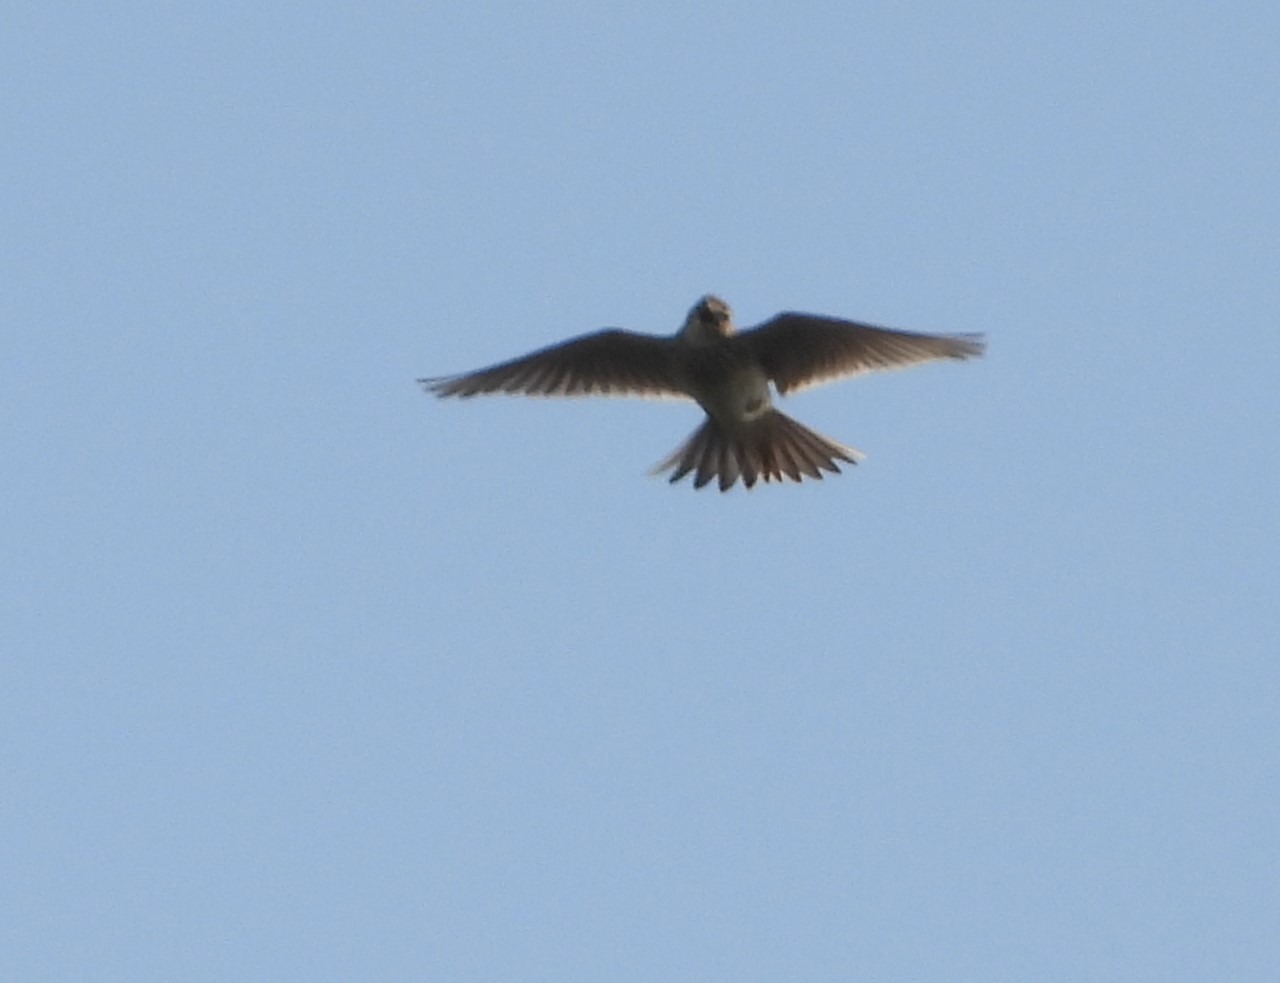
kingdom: Animalia
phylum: Chordata
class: Aves
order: Passeriformes
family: Alaudidae
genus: Alauda
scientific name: Alauda arvensis
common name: Sanglærke
